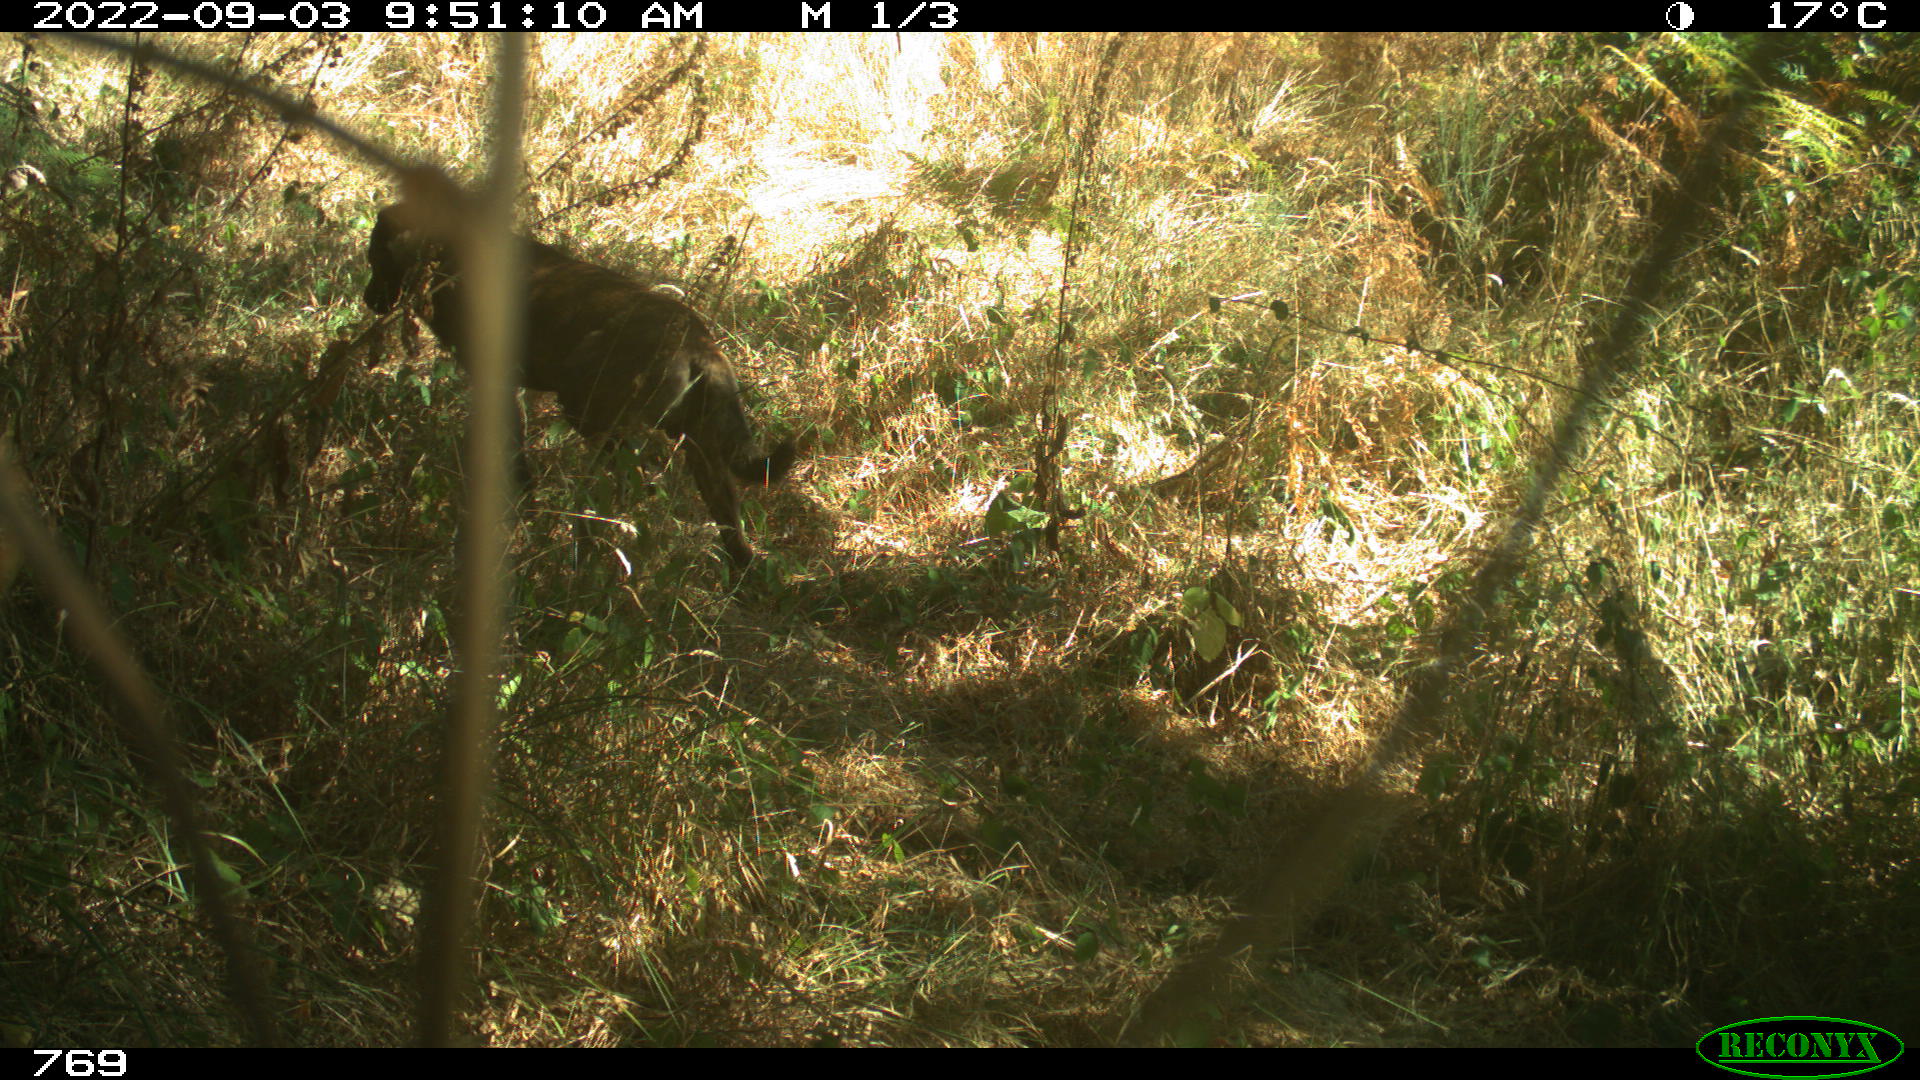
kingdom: Animalia
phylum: Chordata
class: Mammalia
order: Carnivora
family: Canidae
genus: Canis
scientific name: Canis lupus
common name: Gray wolf
